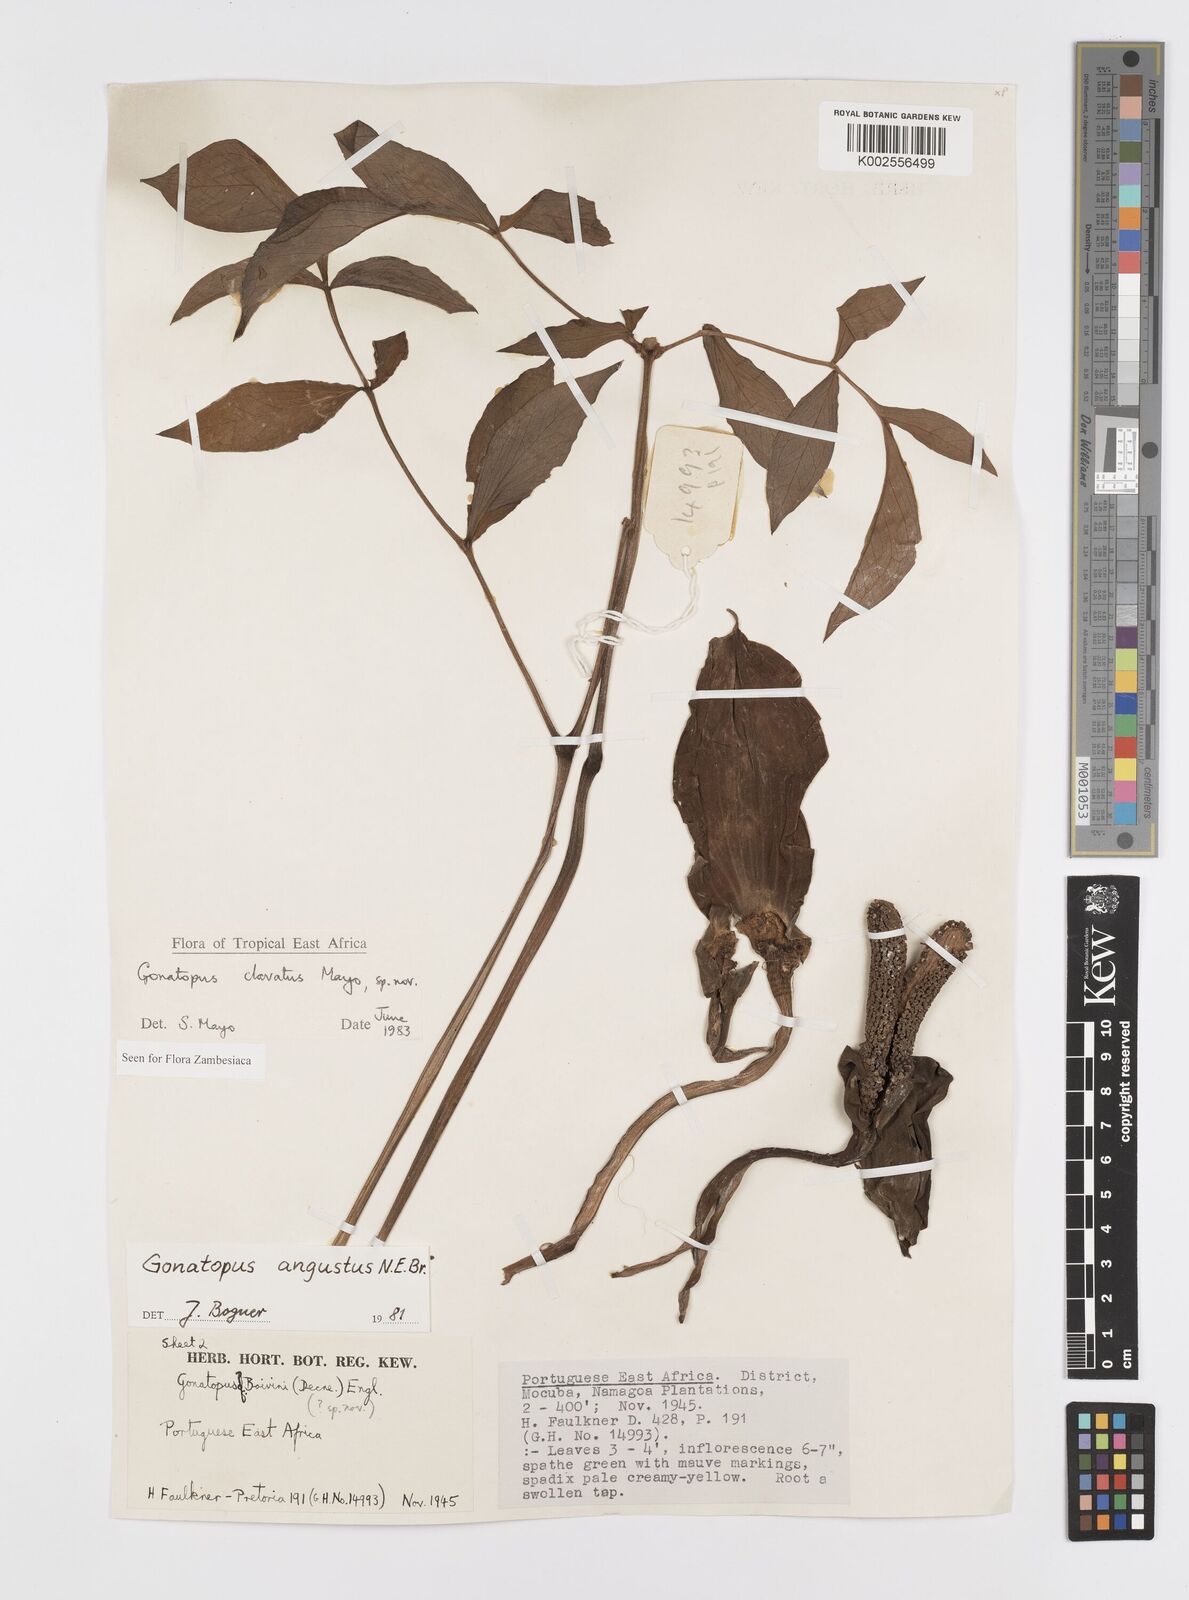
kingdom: Plantae
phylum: Tracheophyta
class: Liliopsida
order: Alismatales
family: Araceae
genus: Gonatopus
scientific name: Gonatopus clavatus
